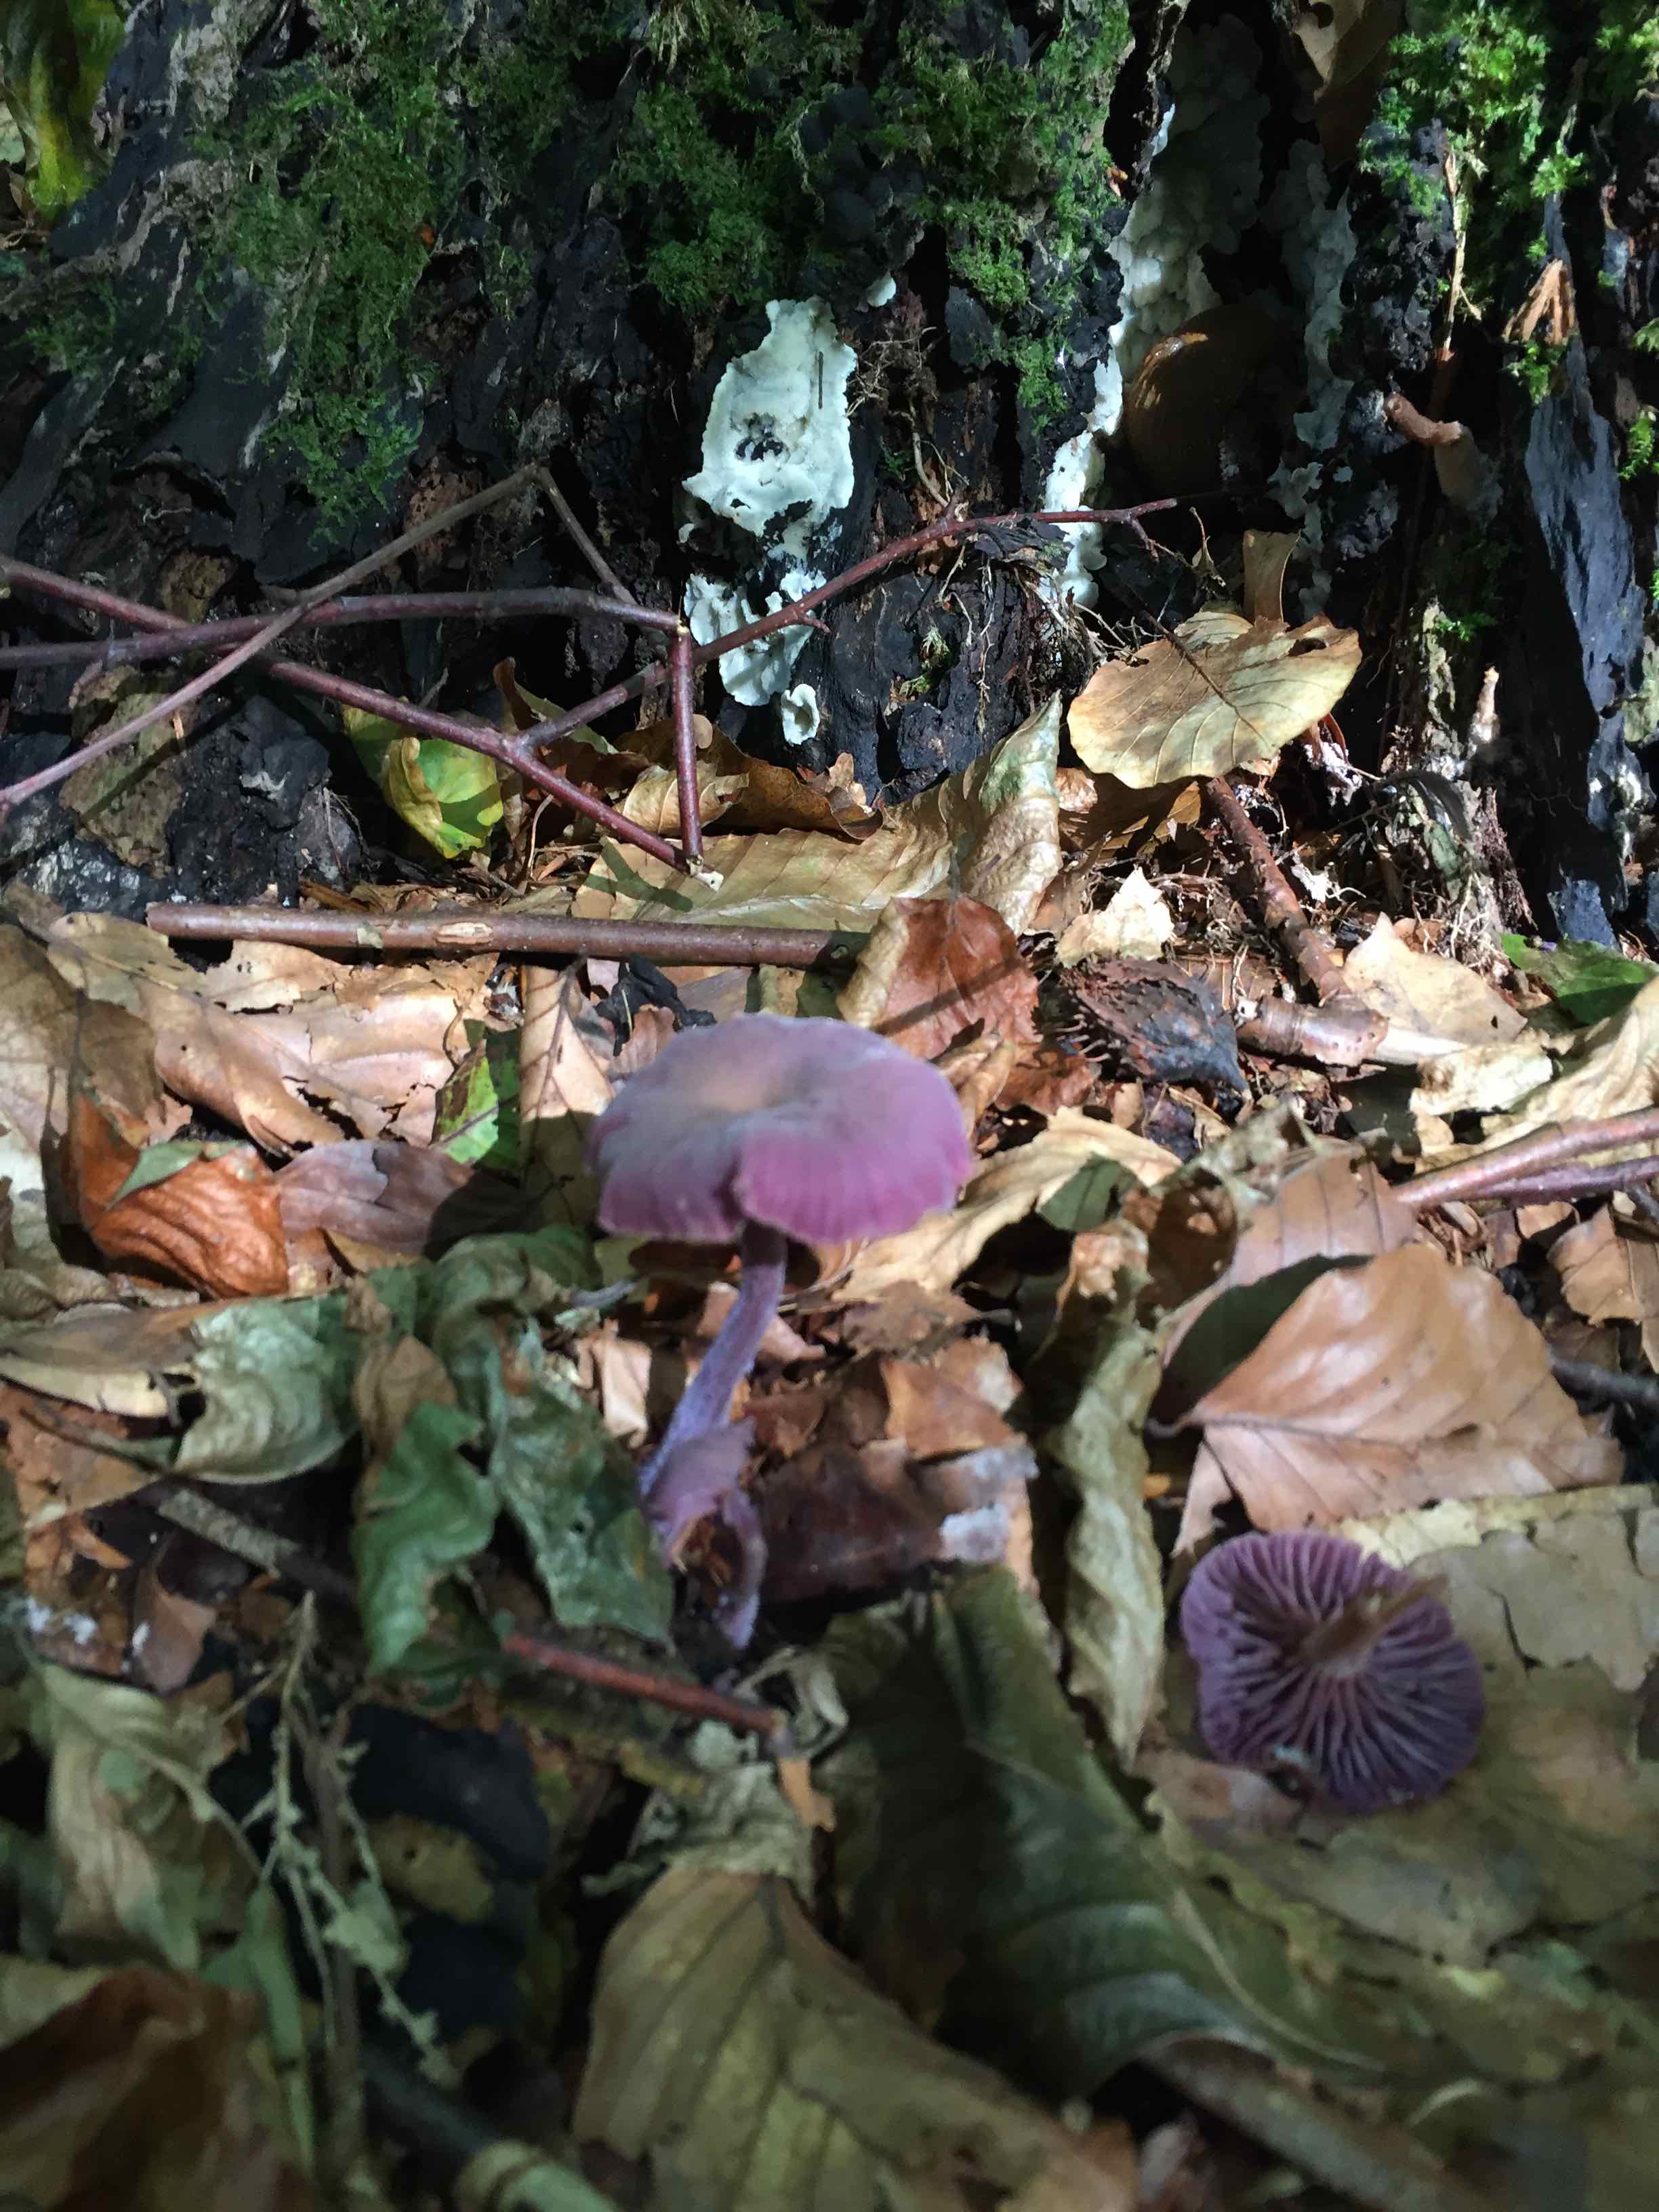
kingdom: Fungi
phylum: Basidiomycota
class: Agaricomycetes
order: Agaricales
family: Hydnangiaceae
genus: Laccaria
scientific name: Laccaria amethystina
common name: violet ametysthat
